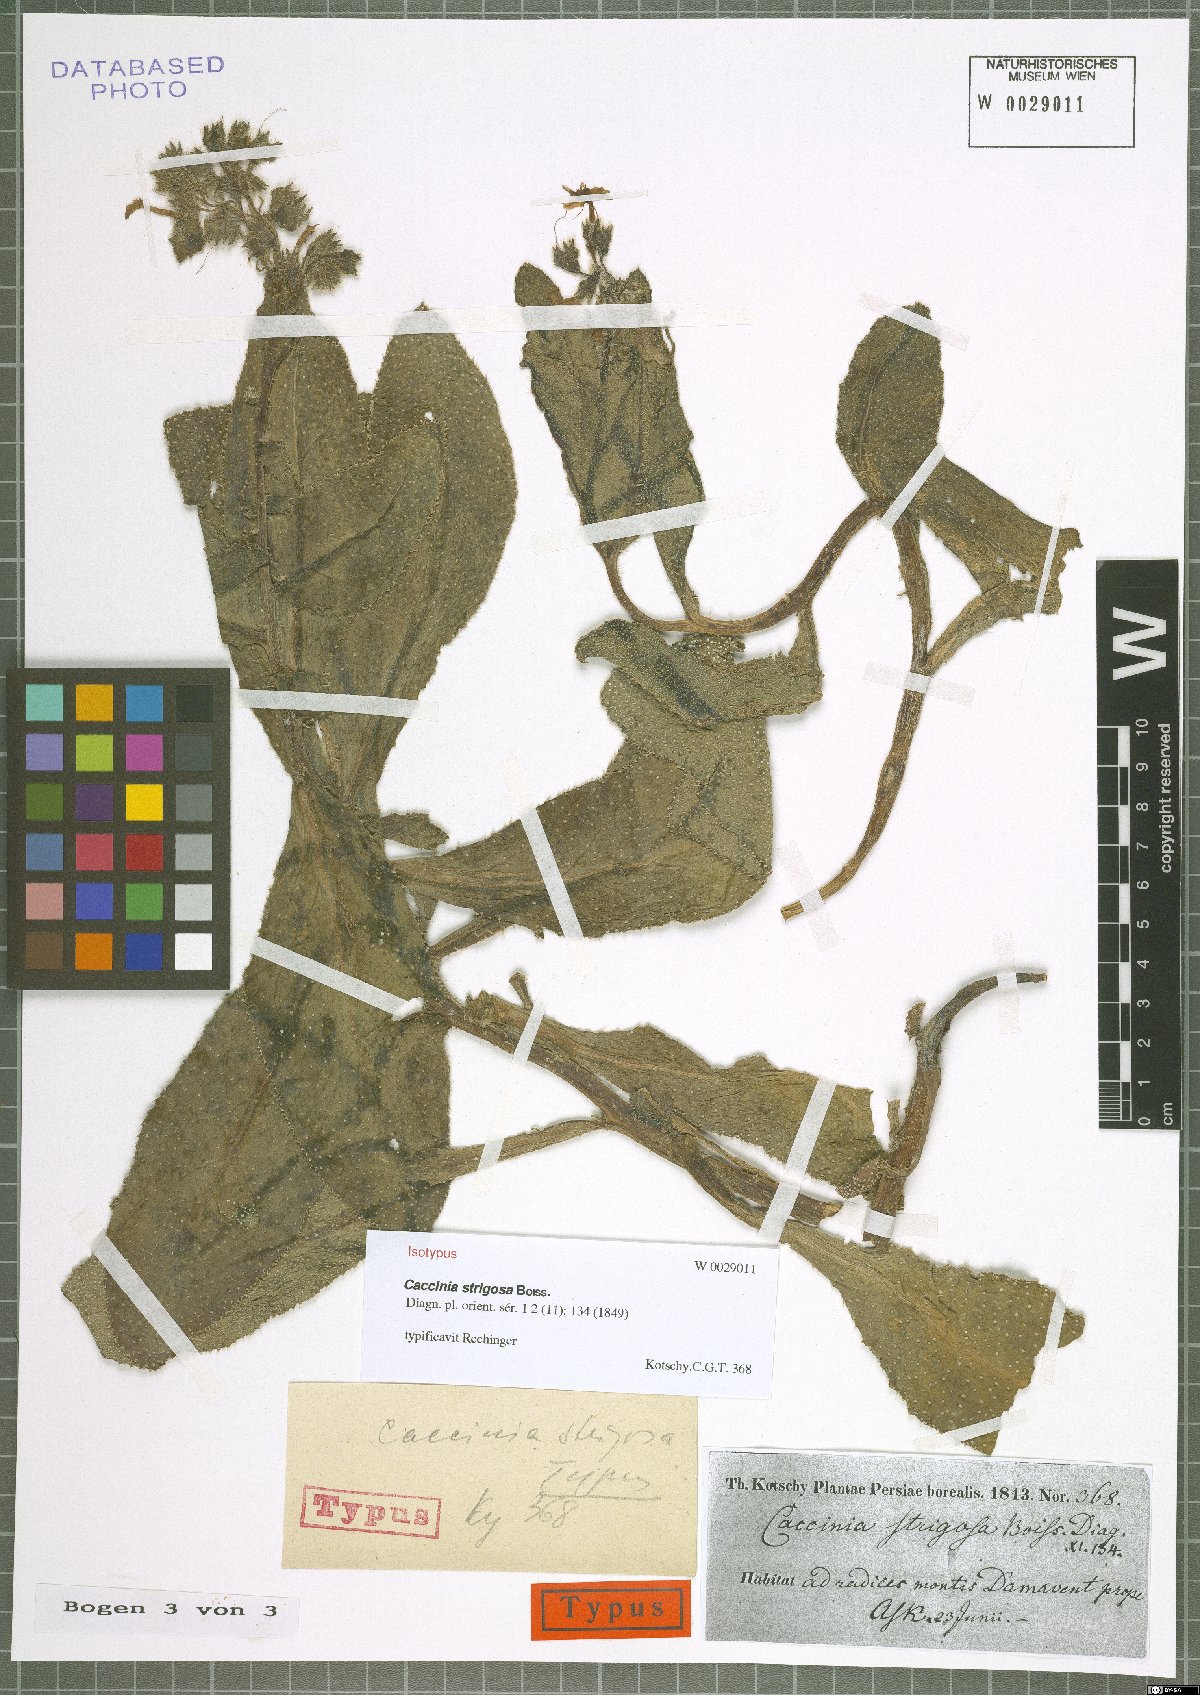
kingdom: Plantae
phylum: Tracheophyta
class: Magnoliopsida
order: Boraginales
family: Boraginaceae
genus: Caccinia
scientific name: Caccinia strigosa
